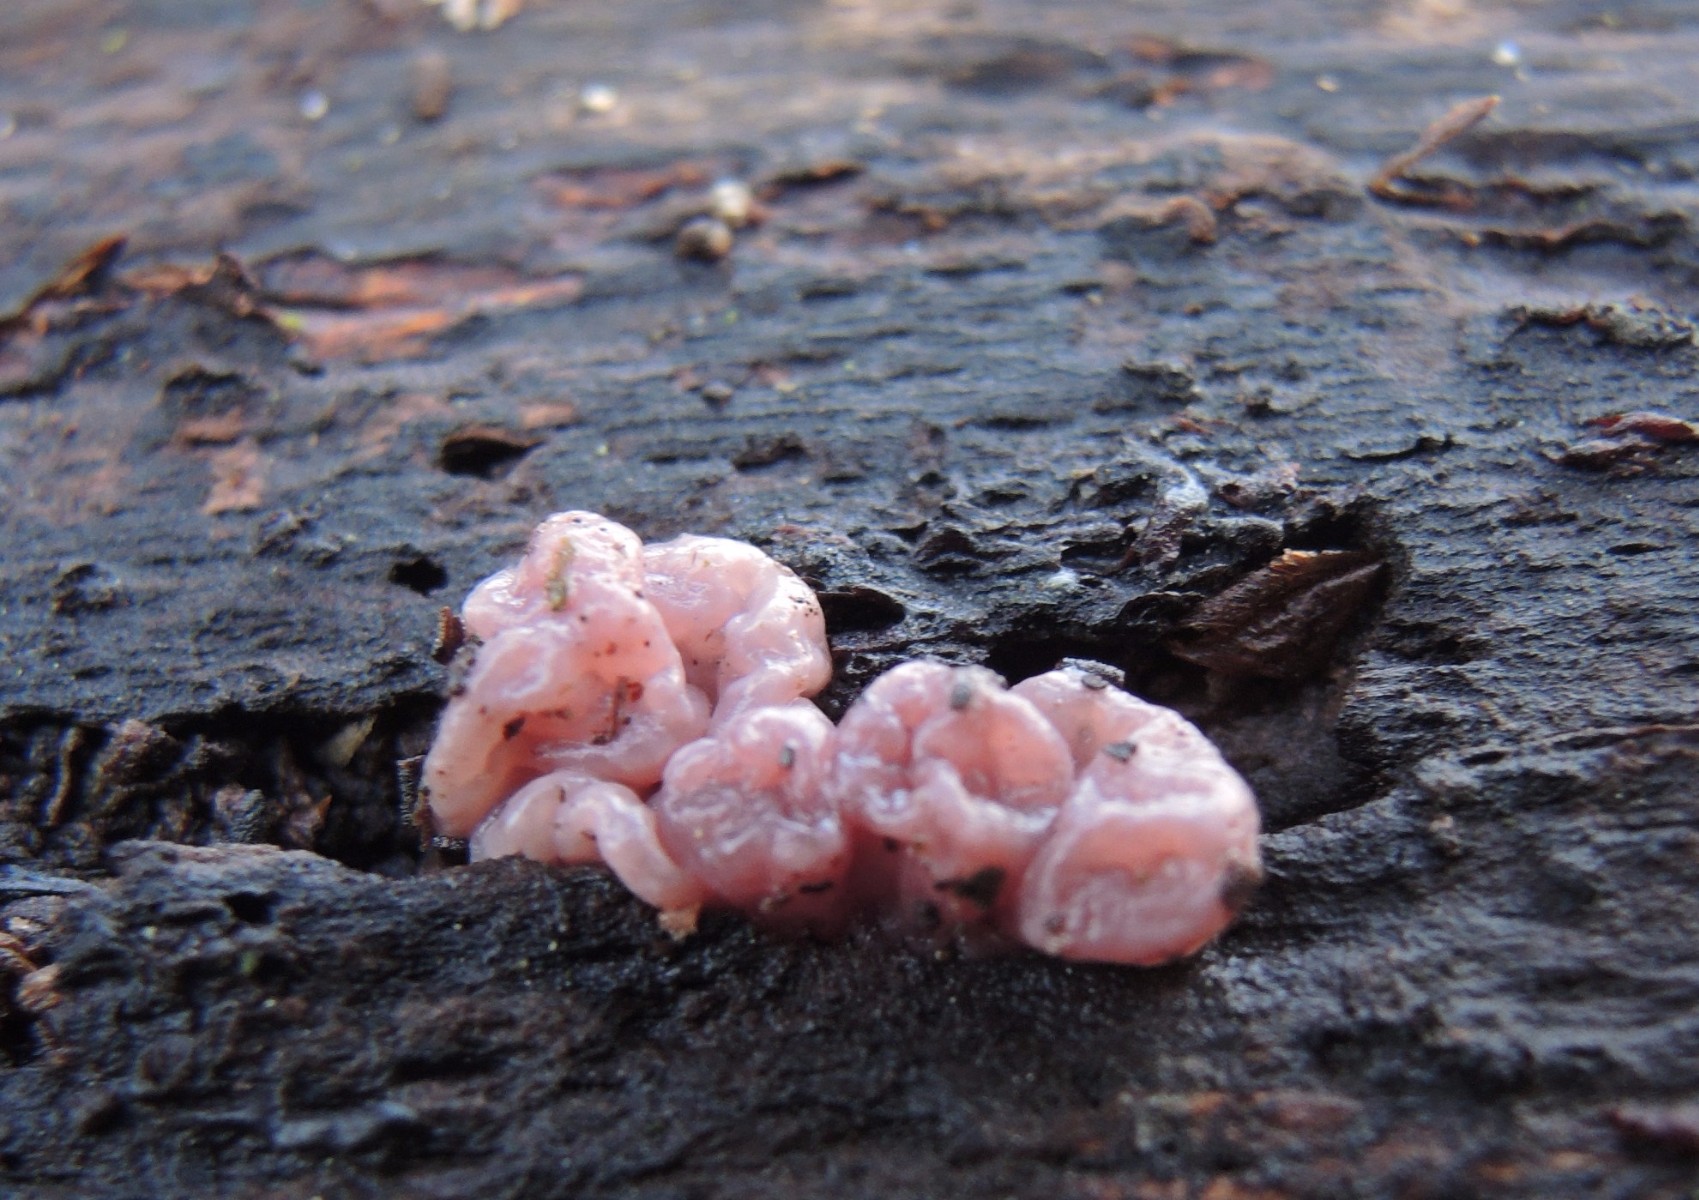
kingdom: Fungi
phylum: Ascomycota
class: Leotiomycetes
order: Helotiales
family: Gelatinodiscaceae
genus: Ascocoryne
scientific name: Ascocoryne sarcoides
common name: rødlilla sejskive
